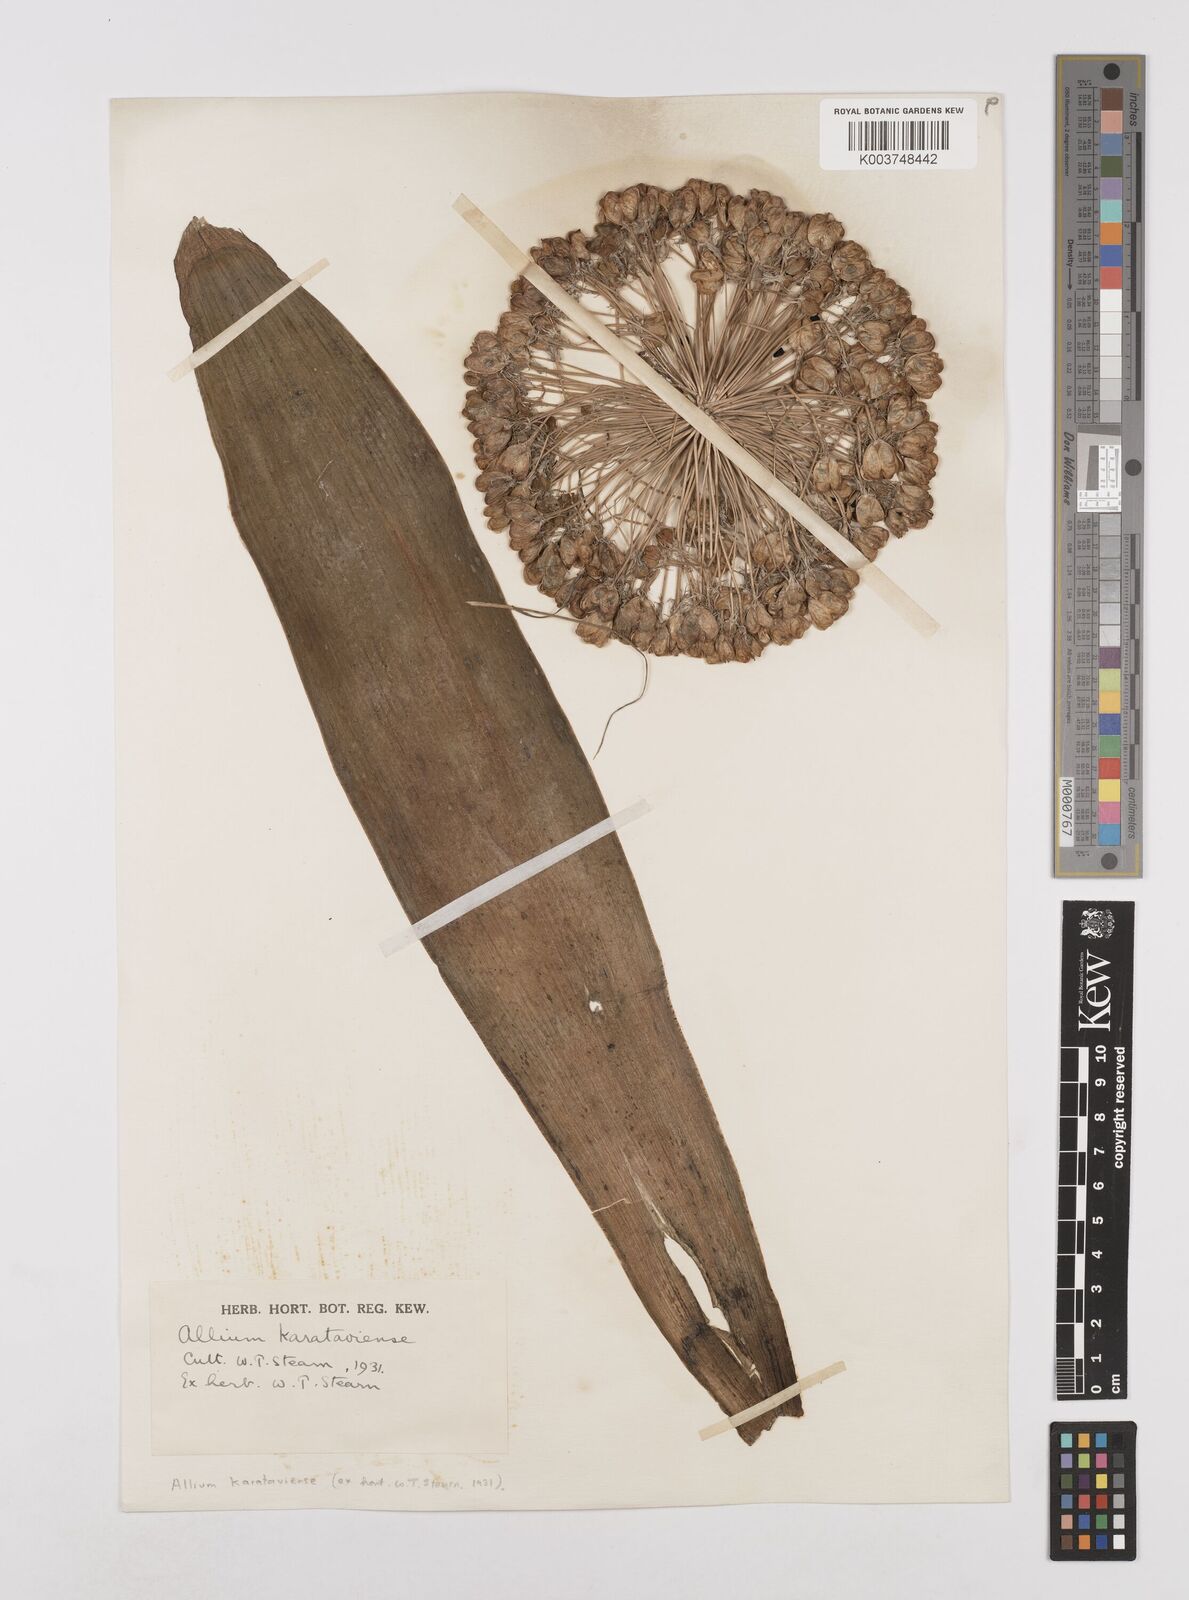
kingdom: Plantae
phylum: Tracheophyta
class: Liliopsida
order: Asparagales
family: Amaryllidaceae
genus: Allium
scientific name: Allium karataviense
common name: Turkestan onion
